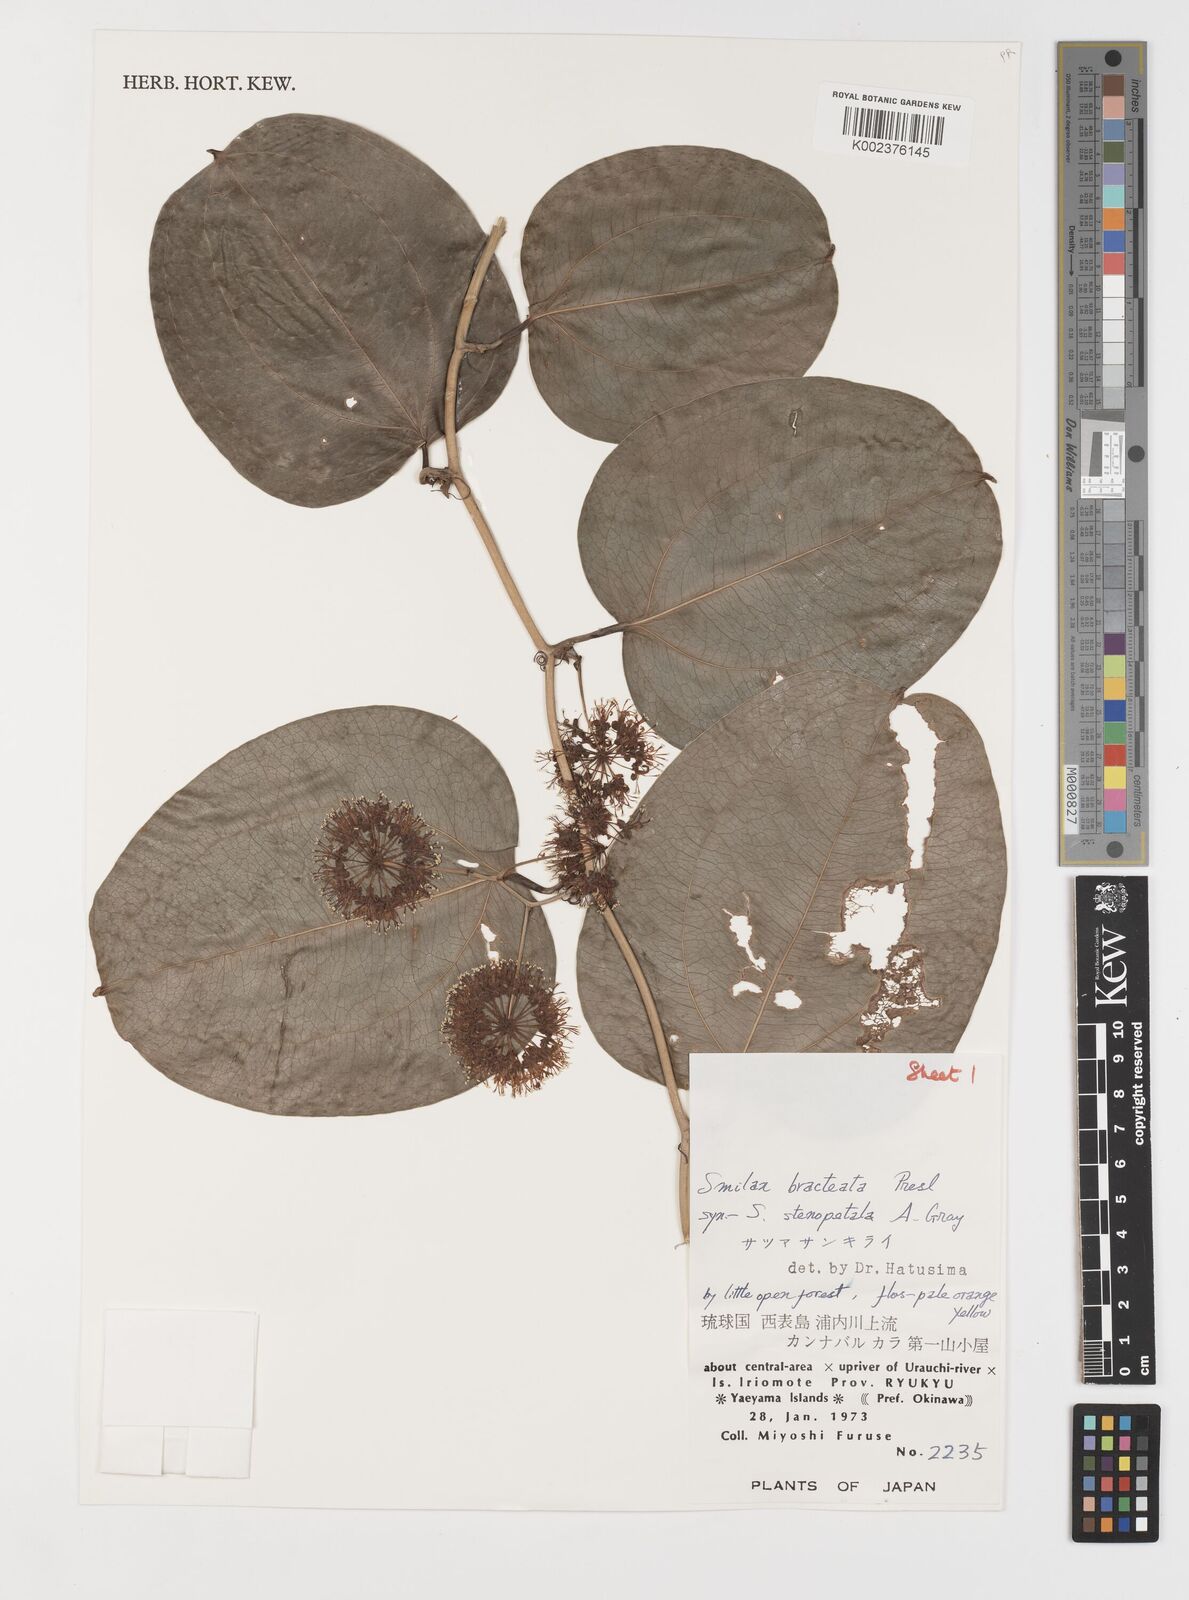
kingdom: Plantae
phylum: Tracheophyta
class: Liliopsida
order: Liliales
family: Smilacaceae
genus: Smilax
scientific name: Smilax bracteata
